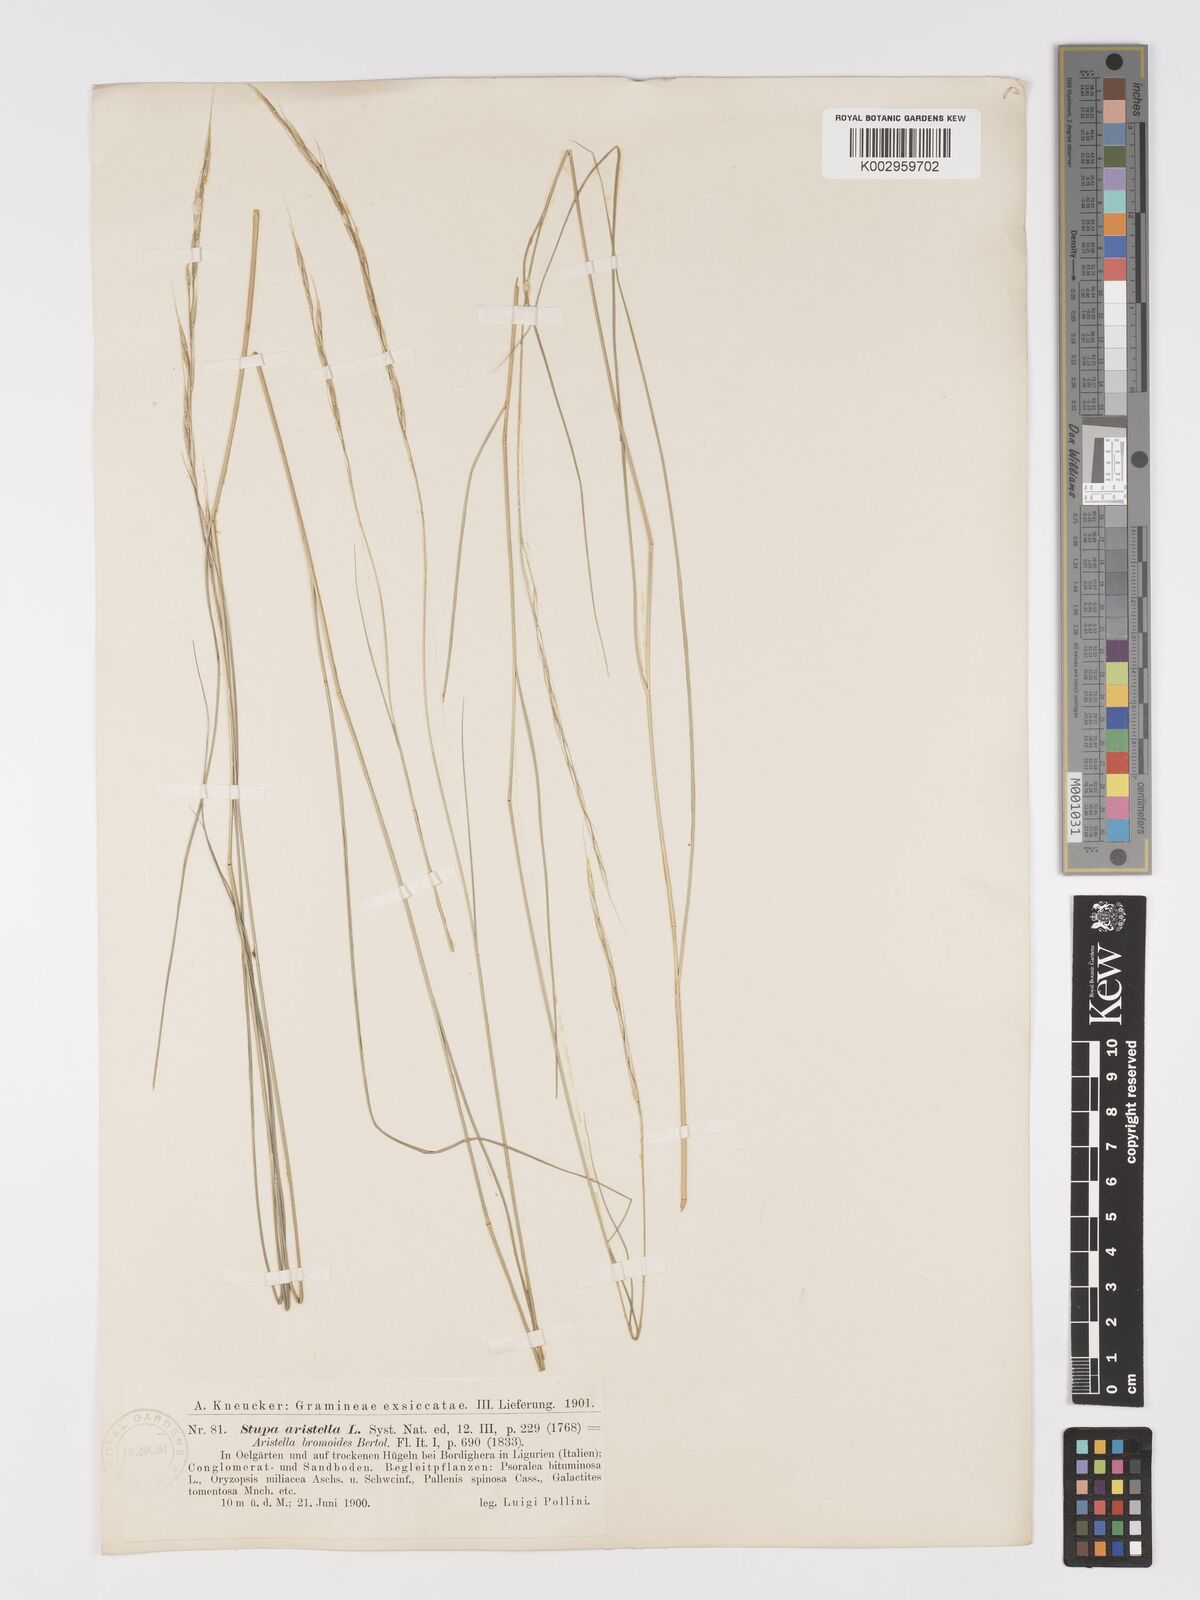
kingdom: Plantae
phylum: Tracheophyta
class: Liliopsida
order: Poales
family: Poaceae
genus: Achnatherum
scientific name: Achnatherum bromoides
